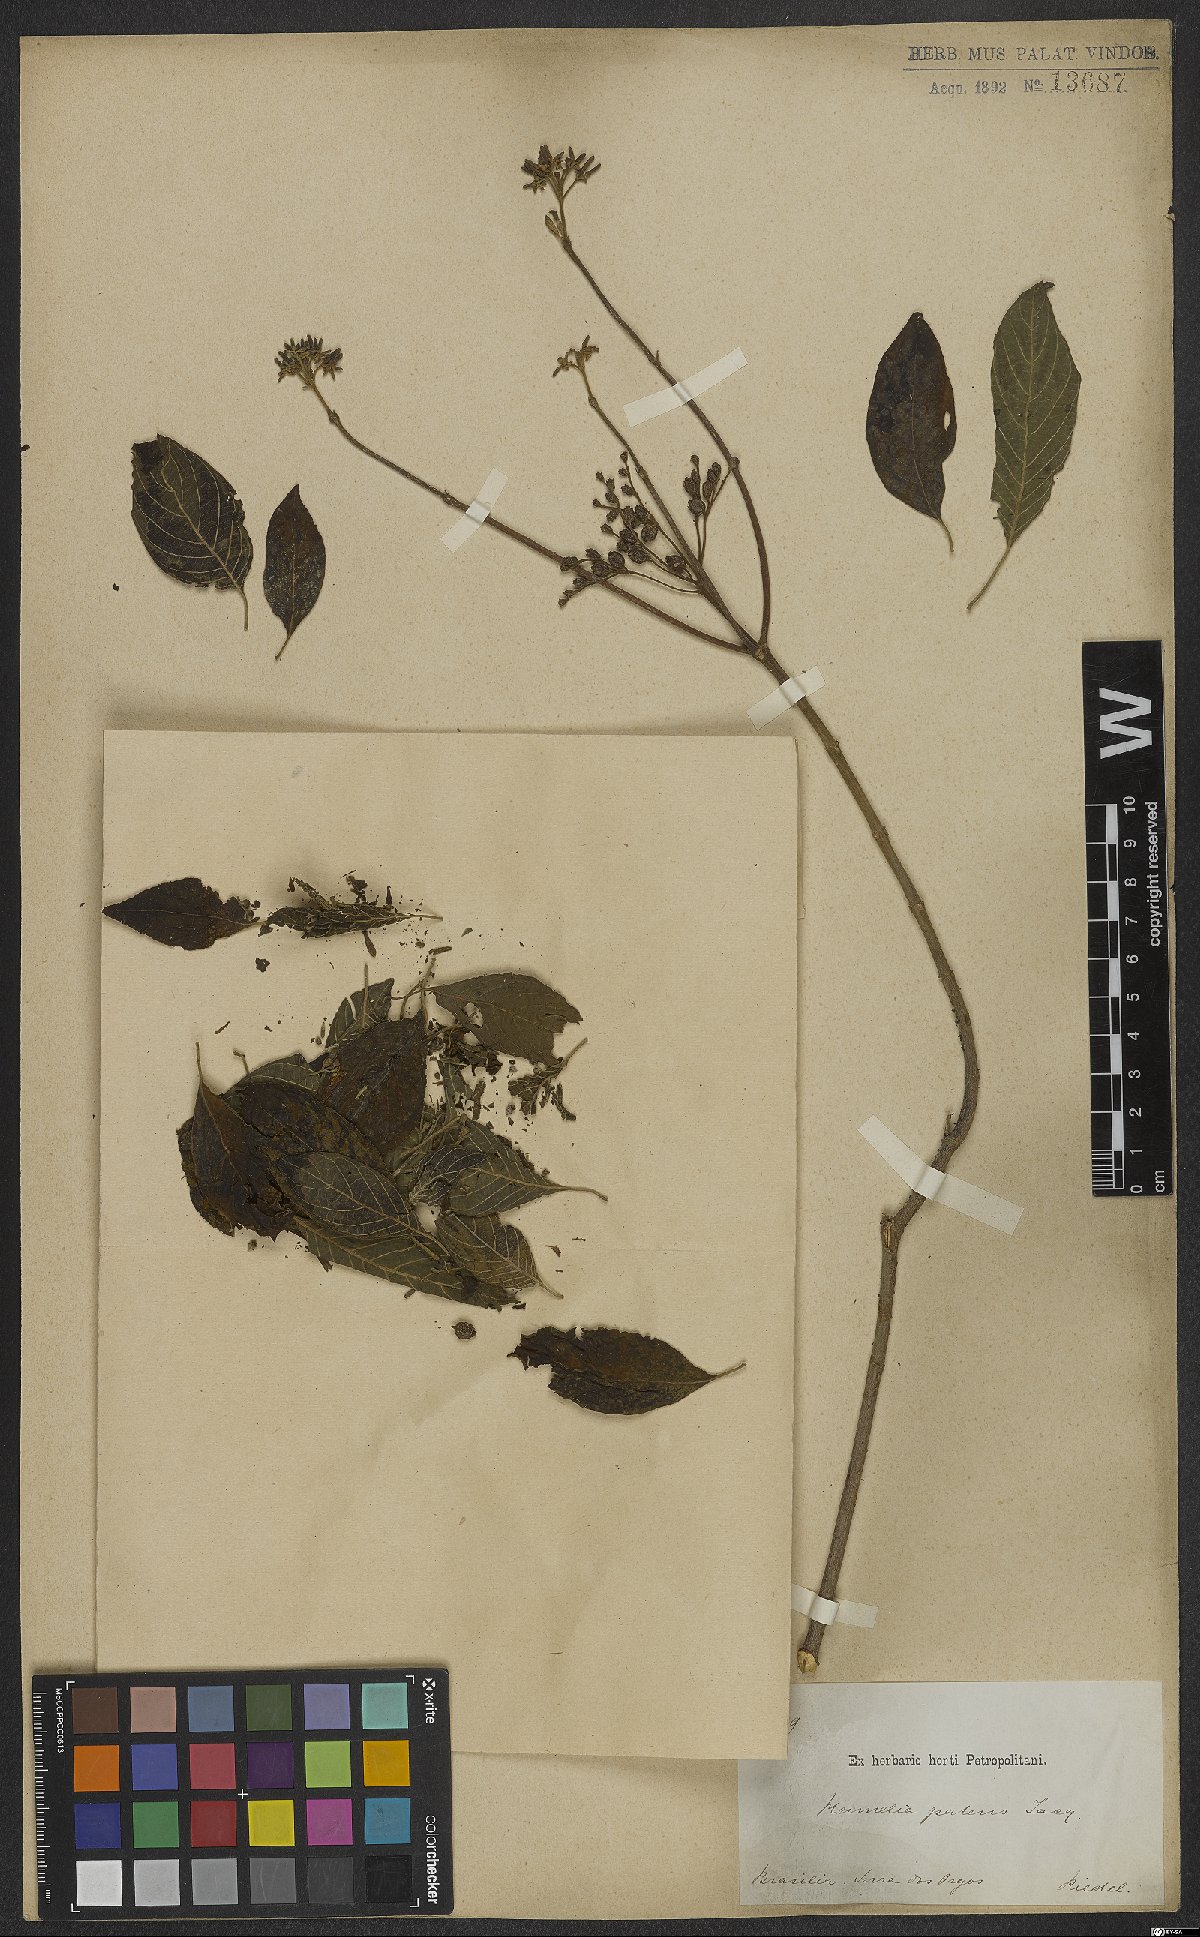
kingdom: Plantae
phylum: Tracheophyta
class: Magnoliopsida
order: Gentianales
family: Rubiaceae
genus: Hamelia
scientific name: Hamelia patens
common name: Redhead
